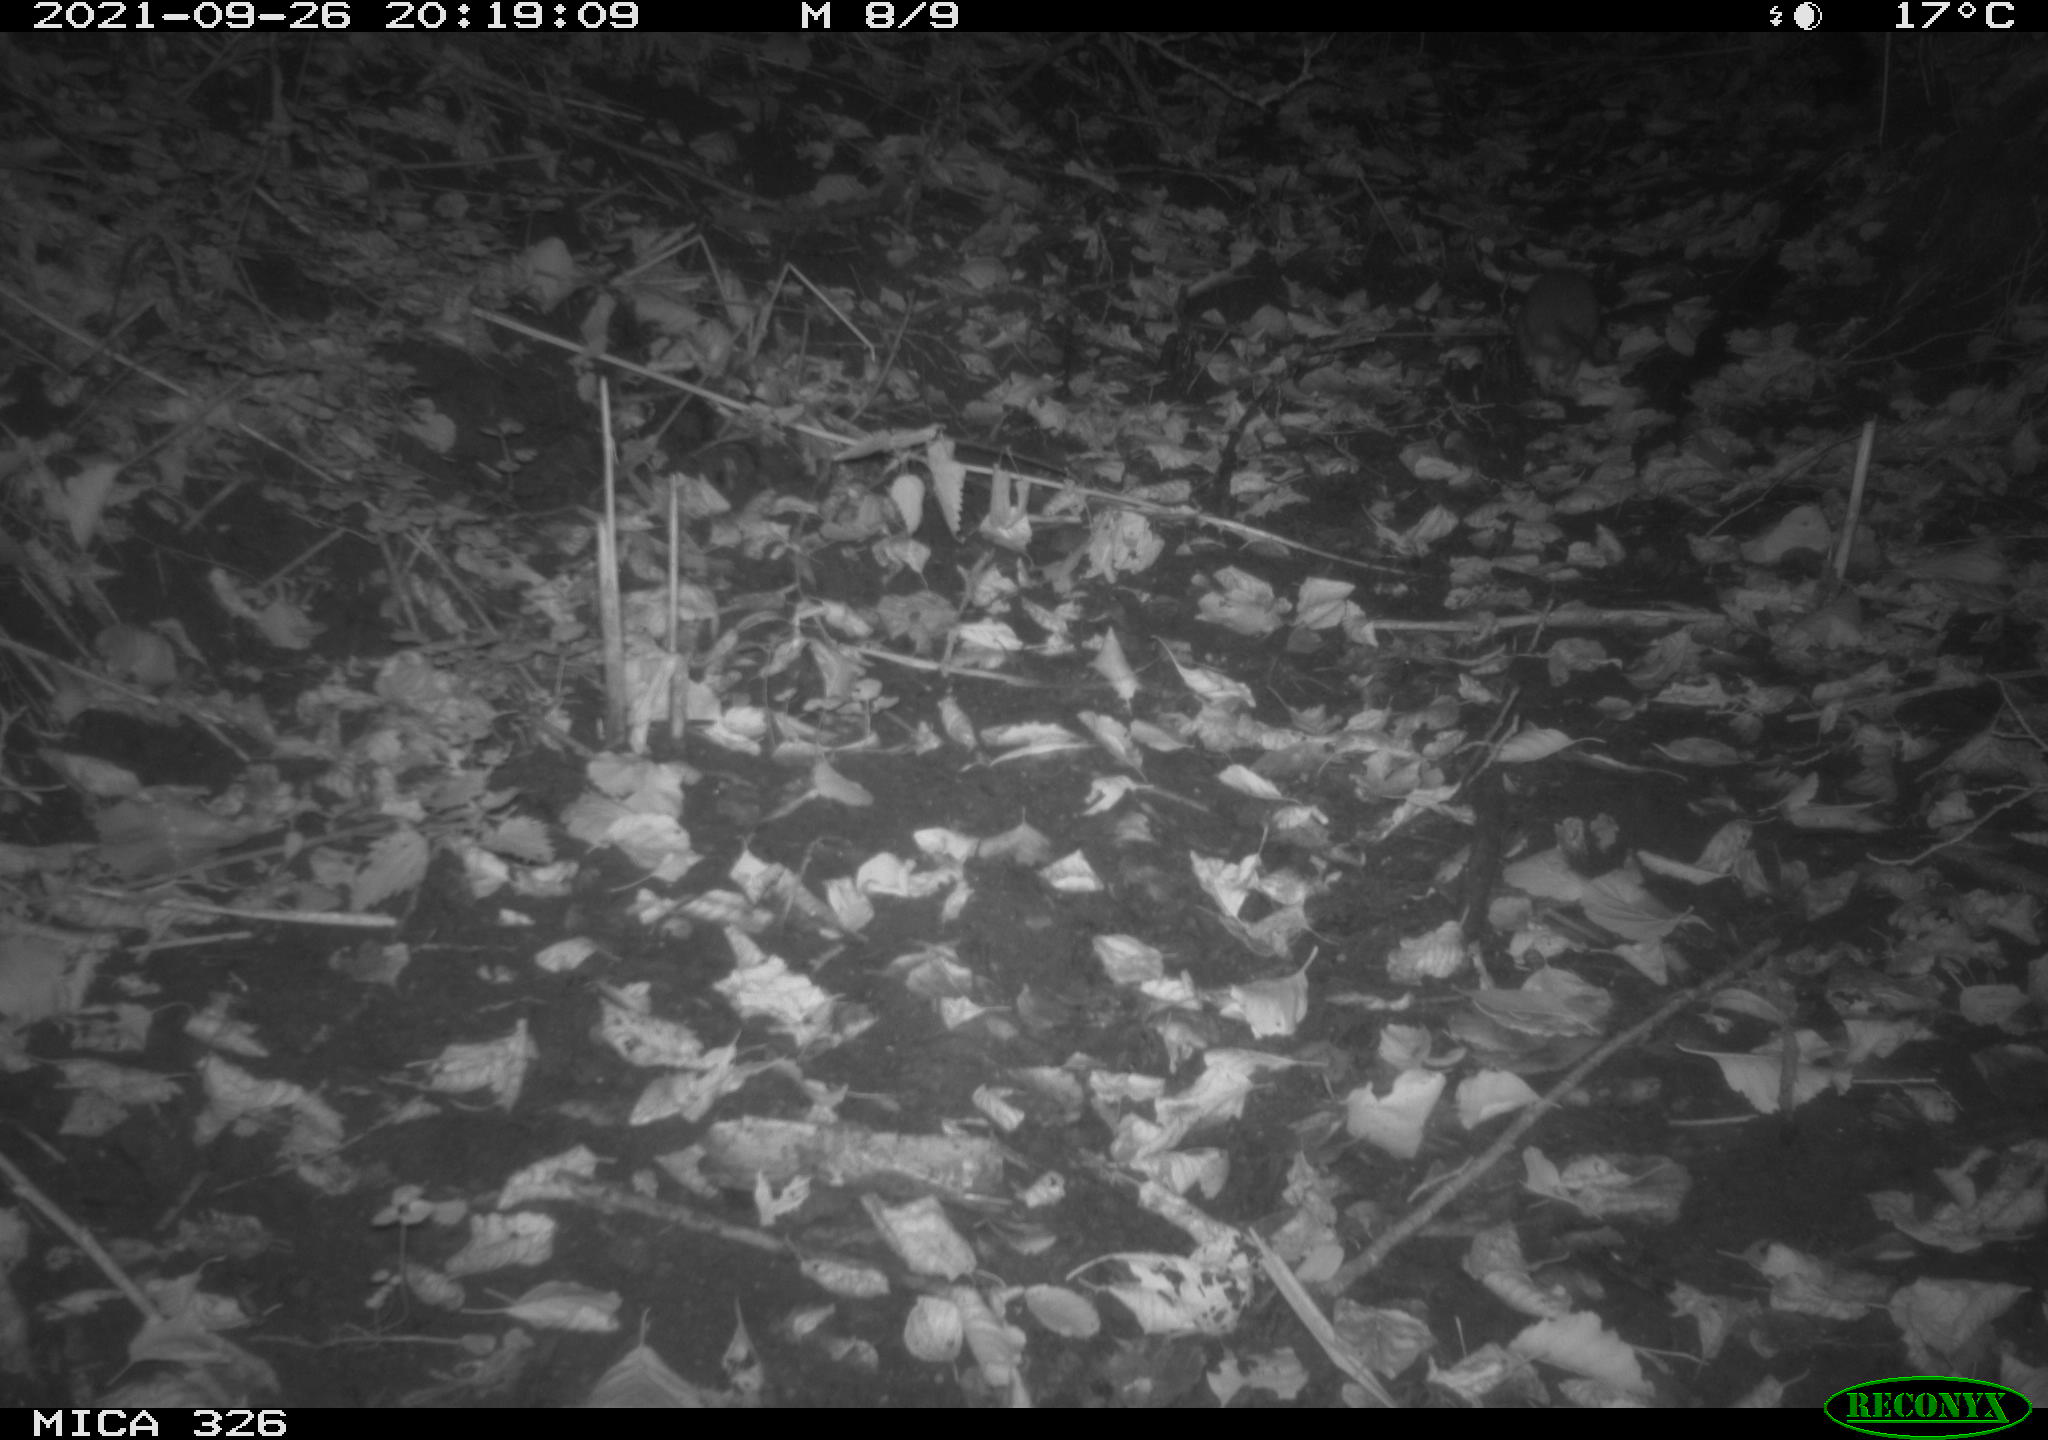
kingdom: Animalia
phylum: Chordata
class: Mammalia
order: Rodentia
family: Muridae
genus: Rattus
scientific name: Rattus norvegicus
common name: Brown rat
